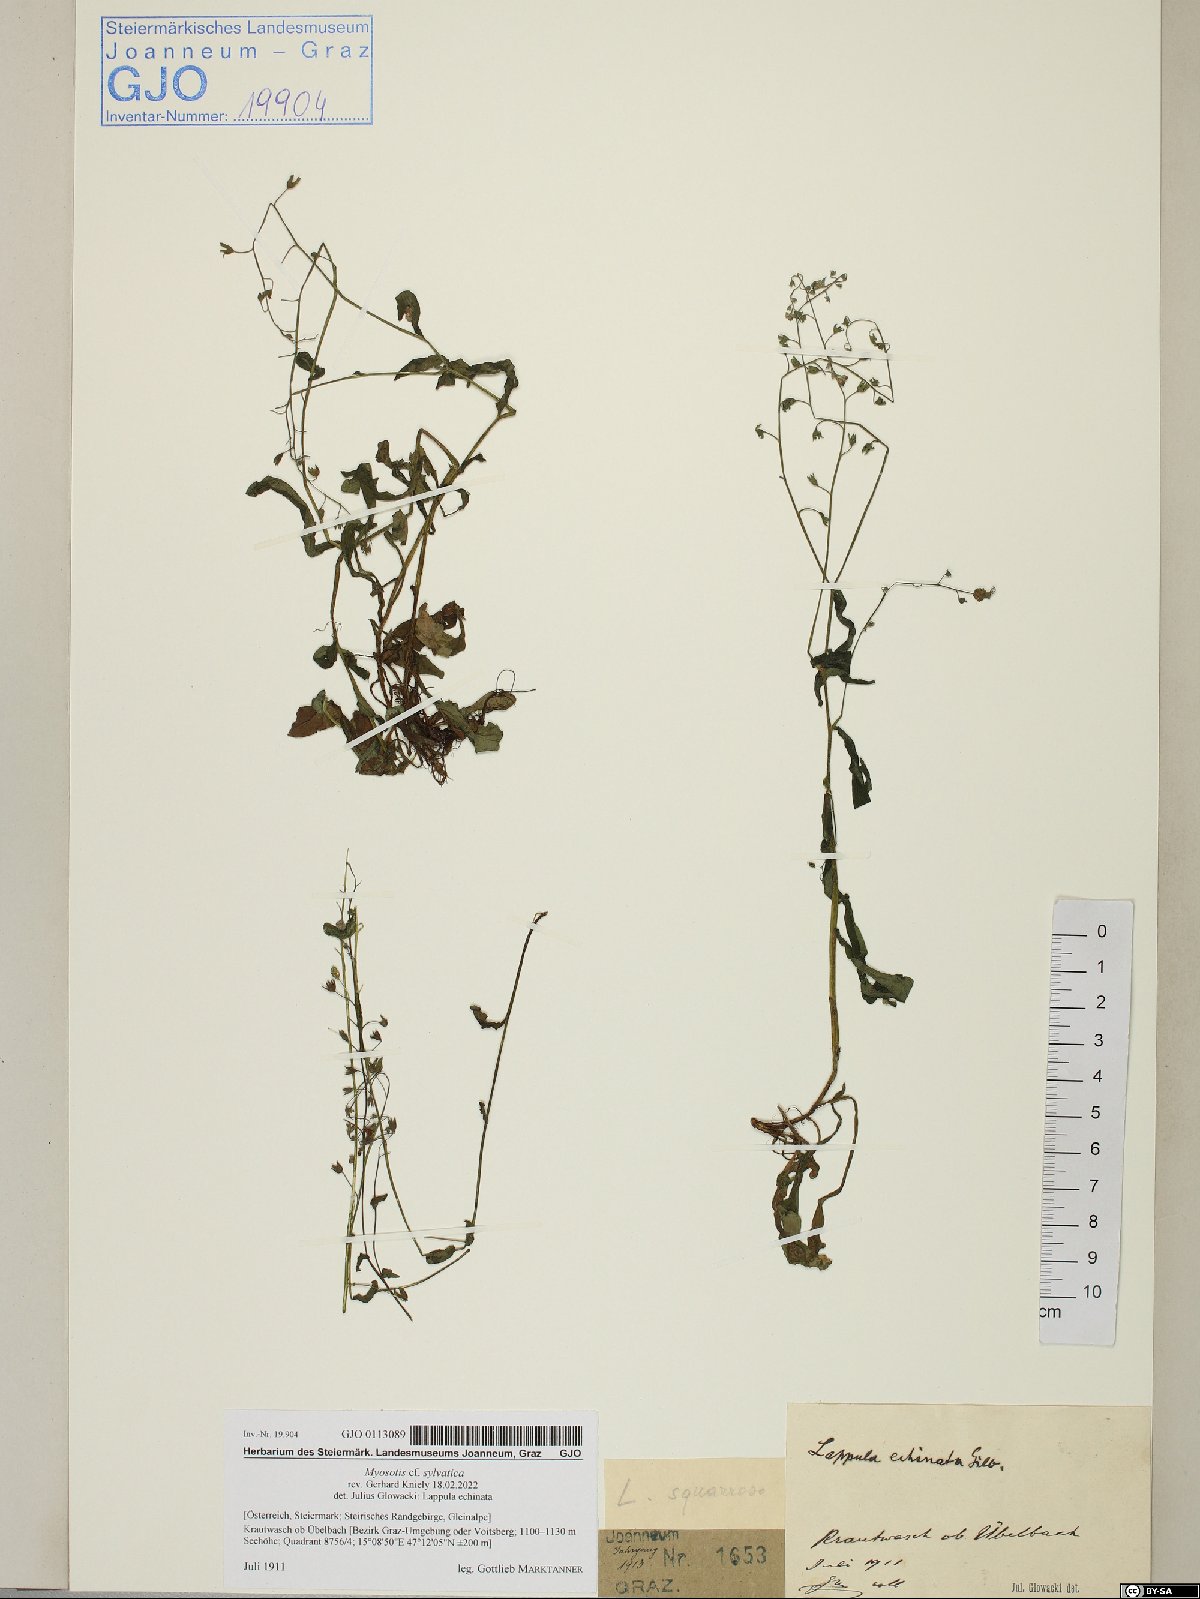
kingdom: Plantae
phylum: Tracheophyta
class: Magnoliopsida
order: Boraginales
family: Boraginaceae
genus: Myosotis
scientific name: Myosotis sylvatica
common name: Wood forget-me-not
